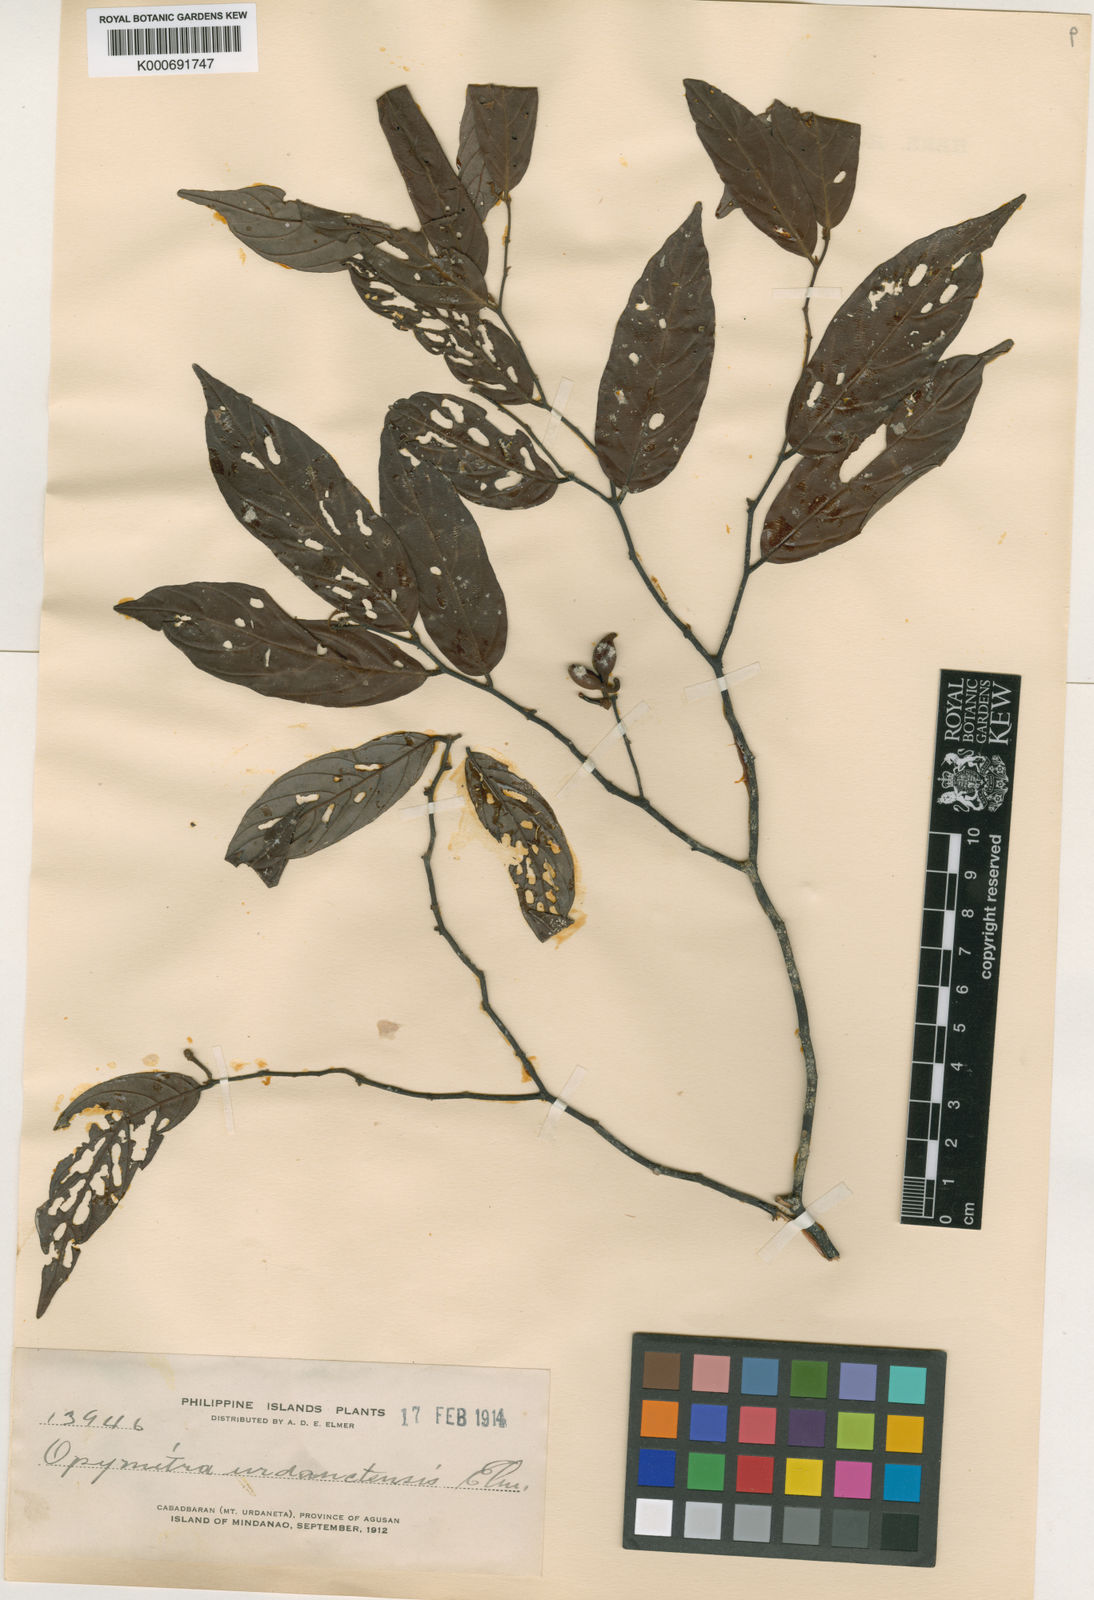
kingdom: Plantae
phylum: Tracheophyta
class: Magnoliopsida
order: Magnoliales
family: Annonaceae
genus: Friesodielsia
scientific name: Friesodielsia
